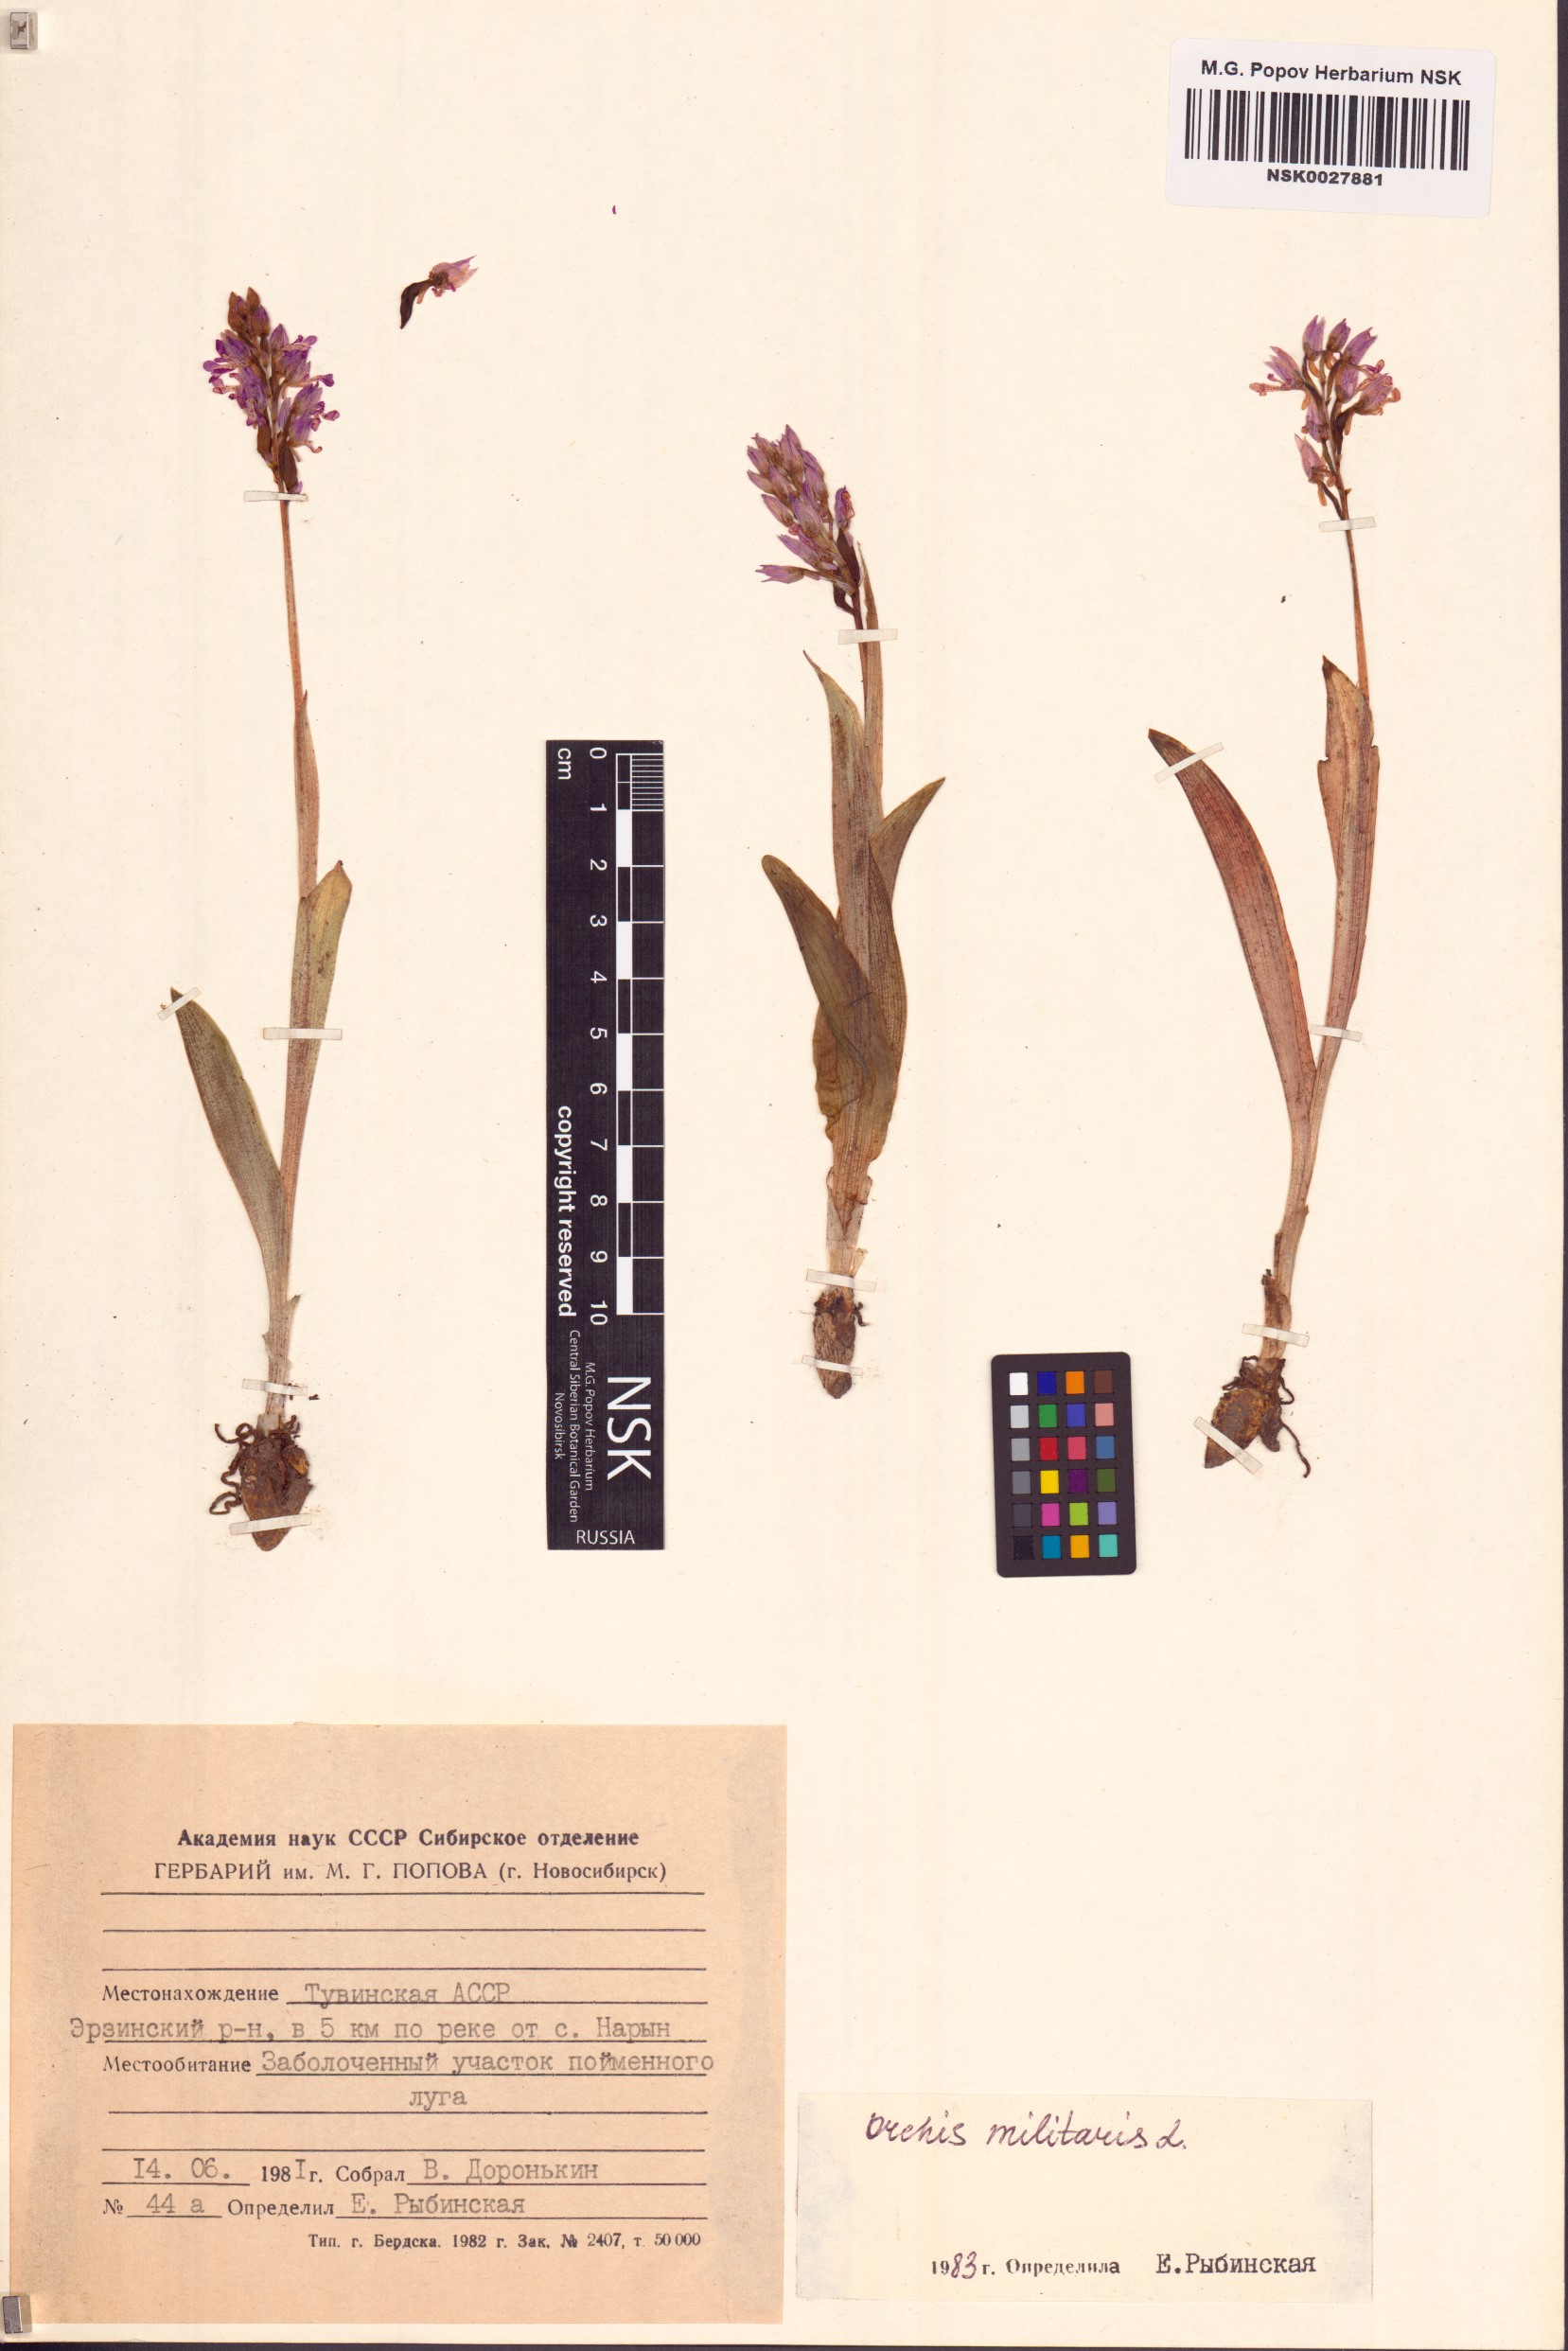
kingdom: Plantae
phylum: Tracheophyta
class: Liliopsida
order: Asparagales
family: Orchidaceae
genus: Orchis
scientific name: Orchis militaris
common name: Military orchid
